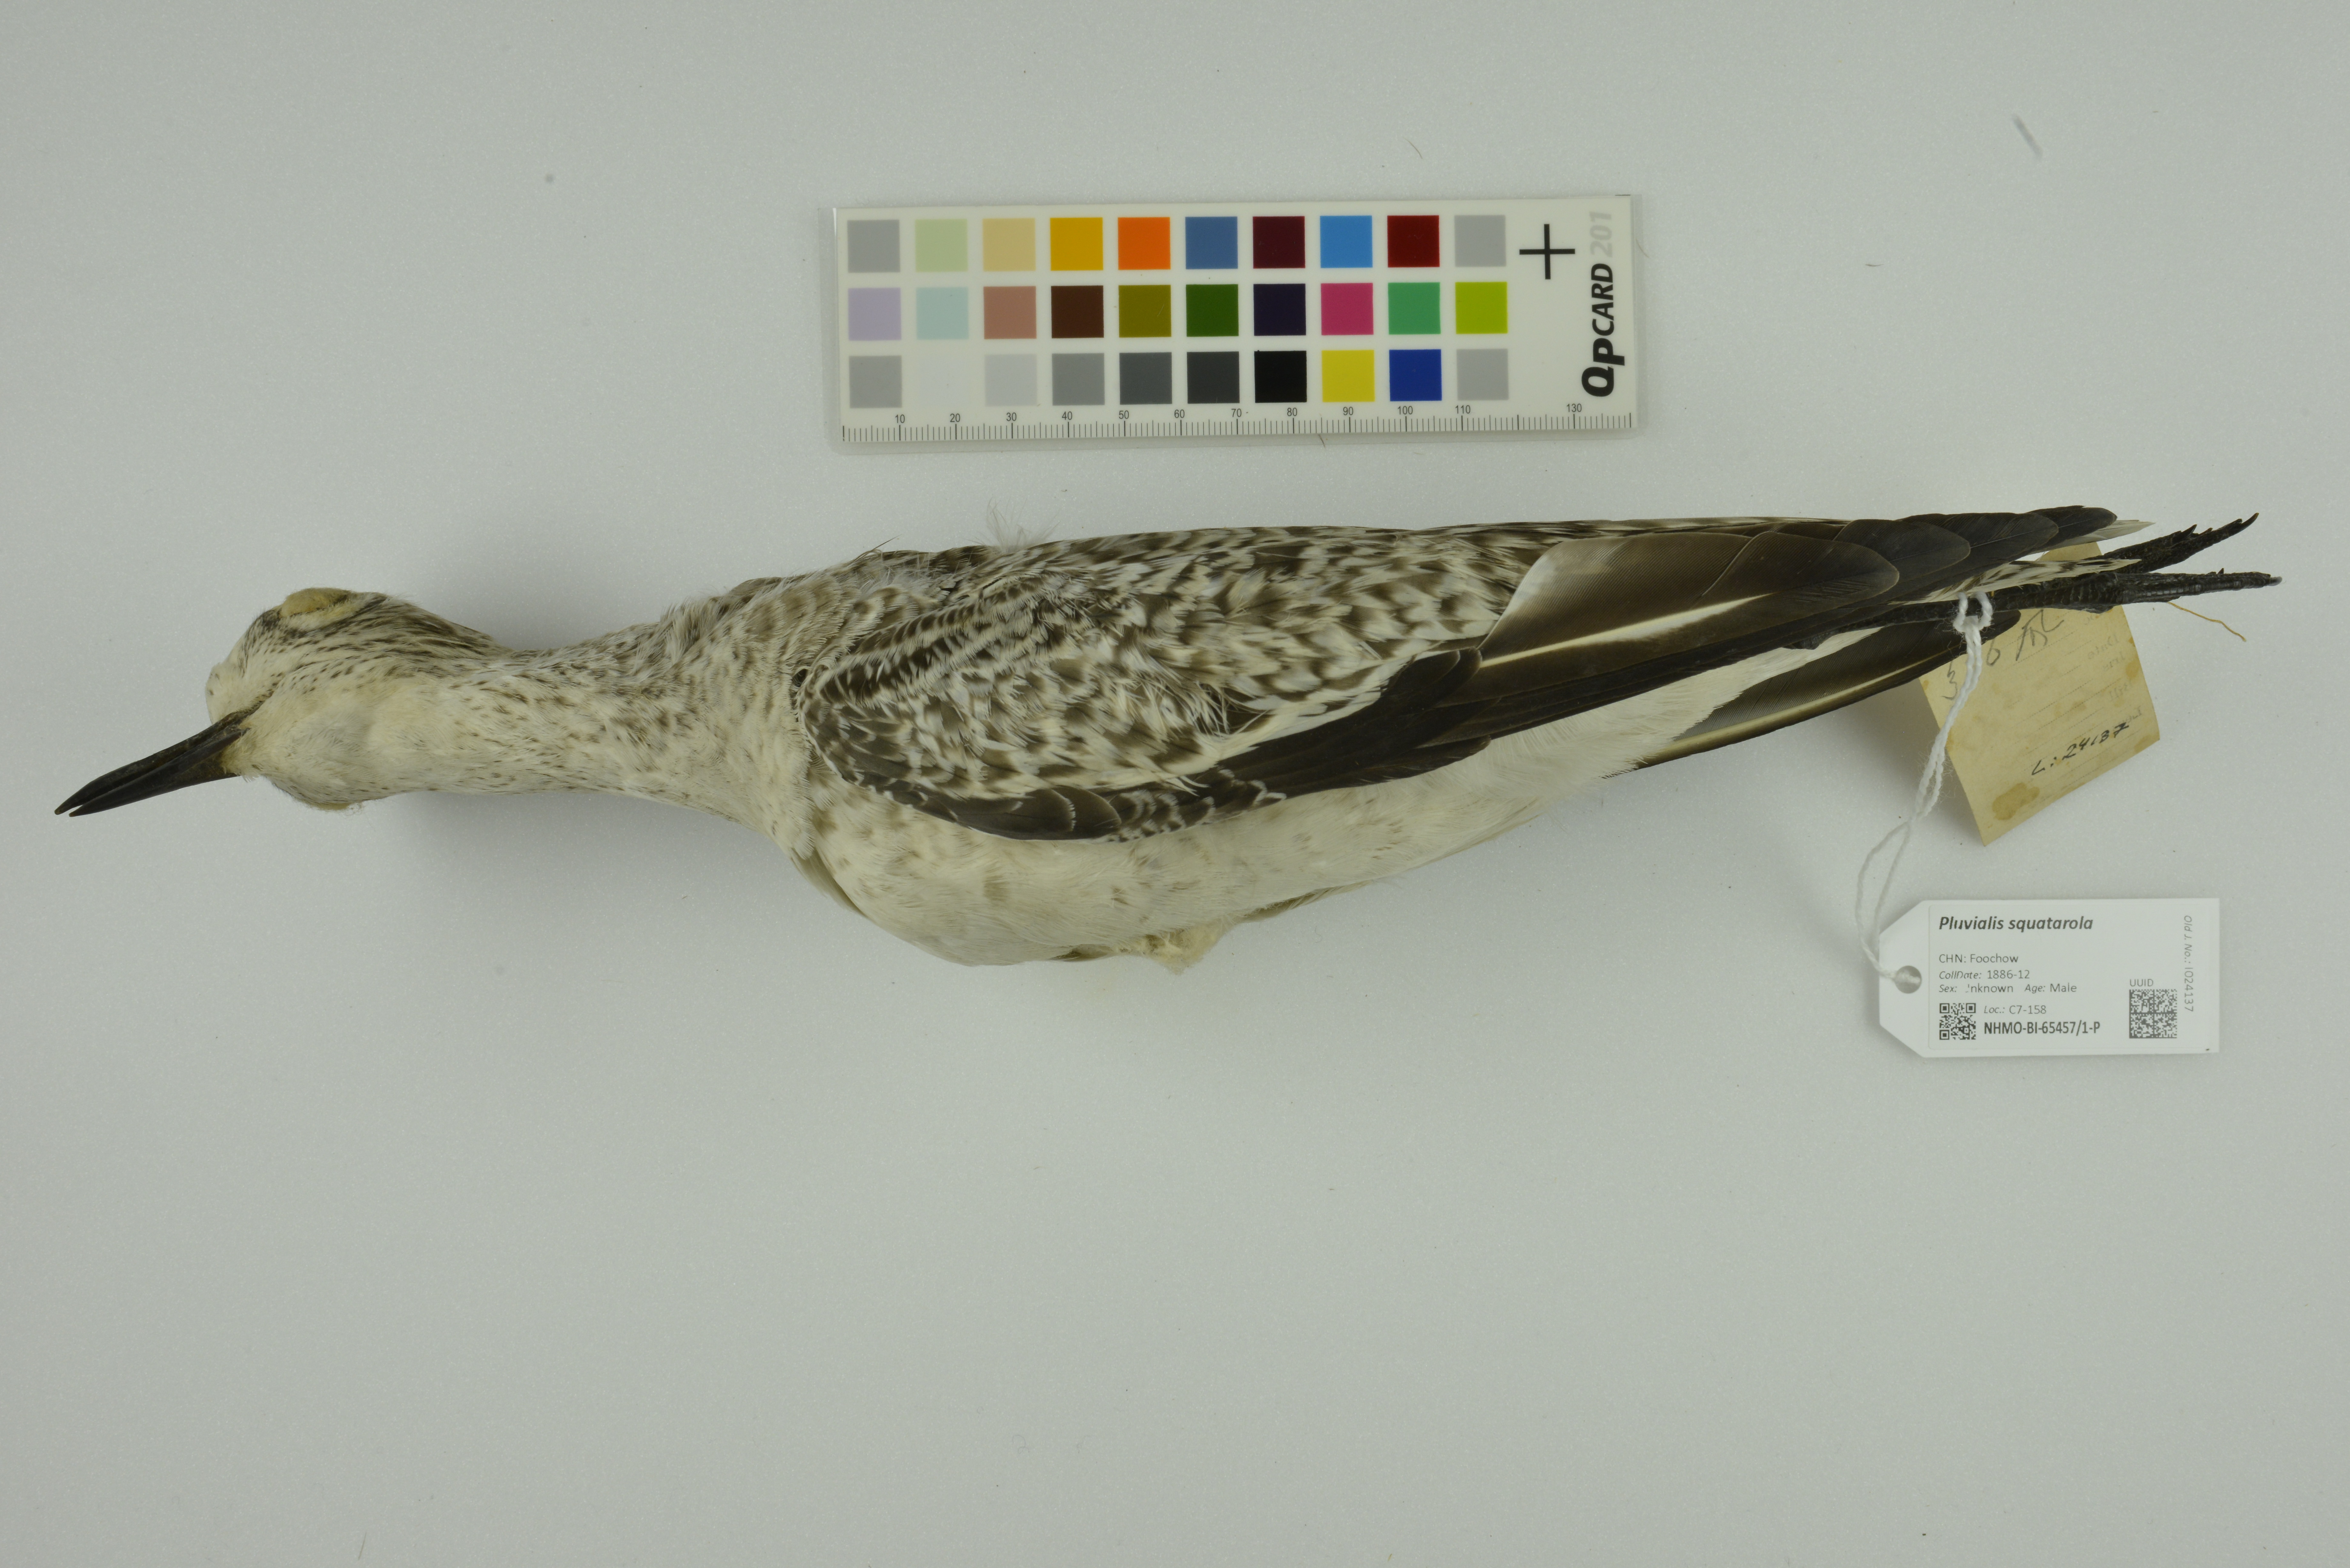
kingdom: Animalia
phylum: Chordata
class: Aves
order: Charadriiformes
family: Charadriidae
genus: Pluvialis
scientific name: Pluvialis squatarola
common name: Grey plover
